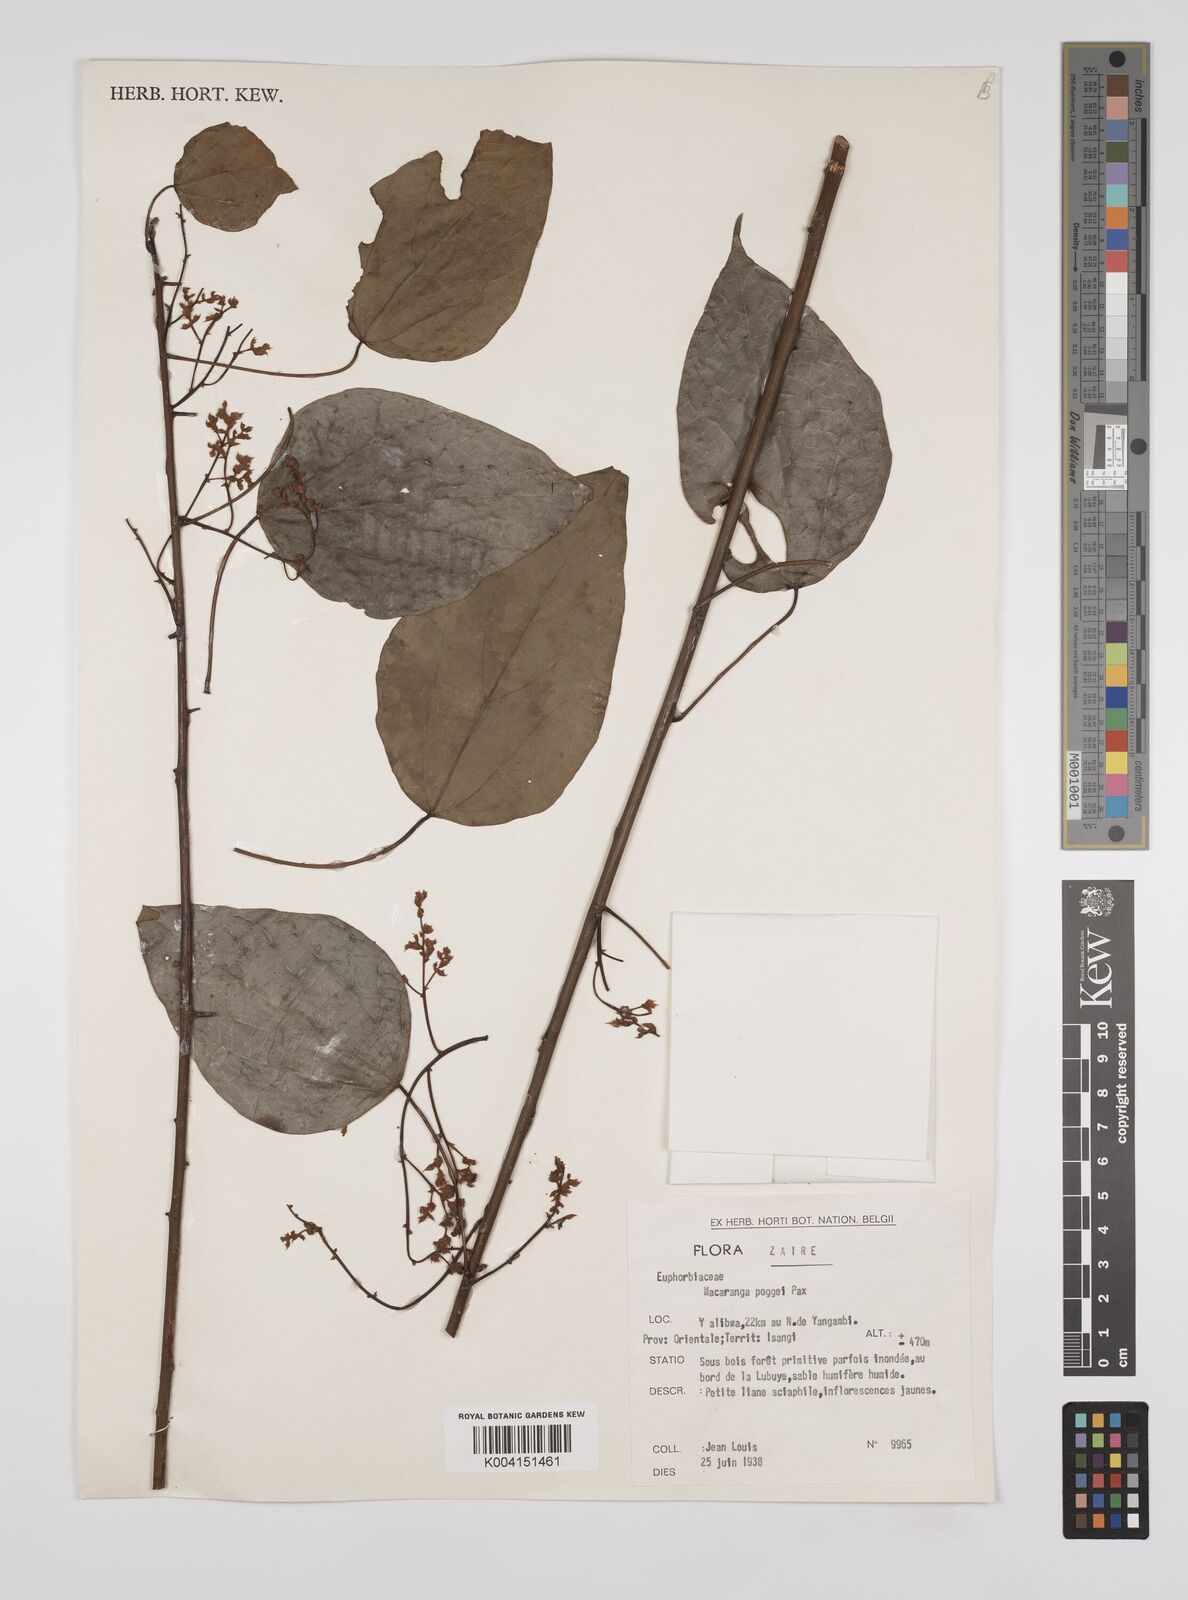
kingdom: Plantae
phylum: Tracheophyta
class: Magnoliopsida
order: Malpighiales
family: Euphorbiaceae
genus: Macaranga
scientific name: Macaranga poggei
